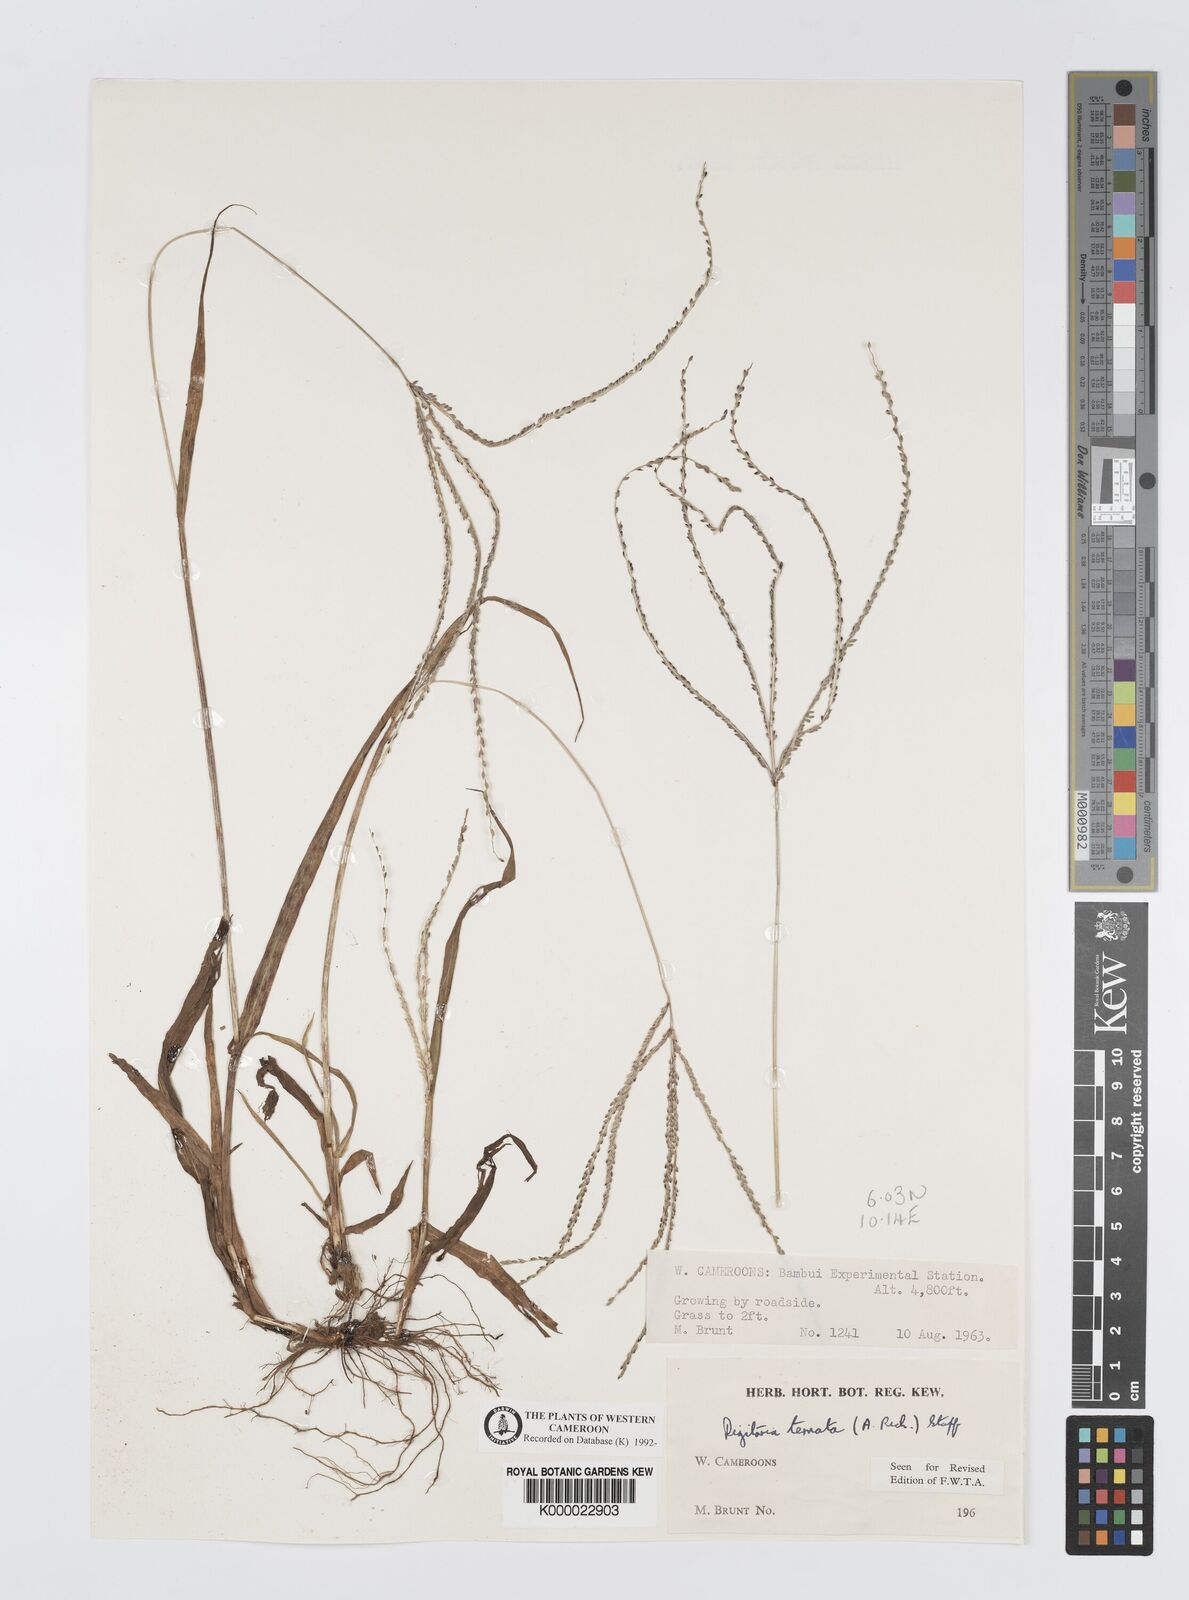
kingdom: Plantae
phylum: Tracheophyta
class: Liliopsida
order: Poales
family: Poaceae
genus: Digitaria
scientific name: Digitaria ternata
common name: Blackseed crabgrass
